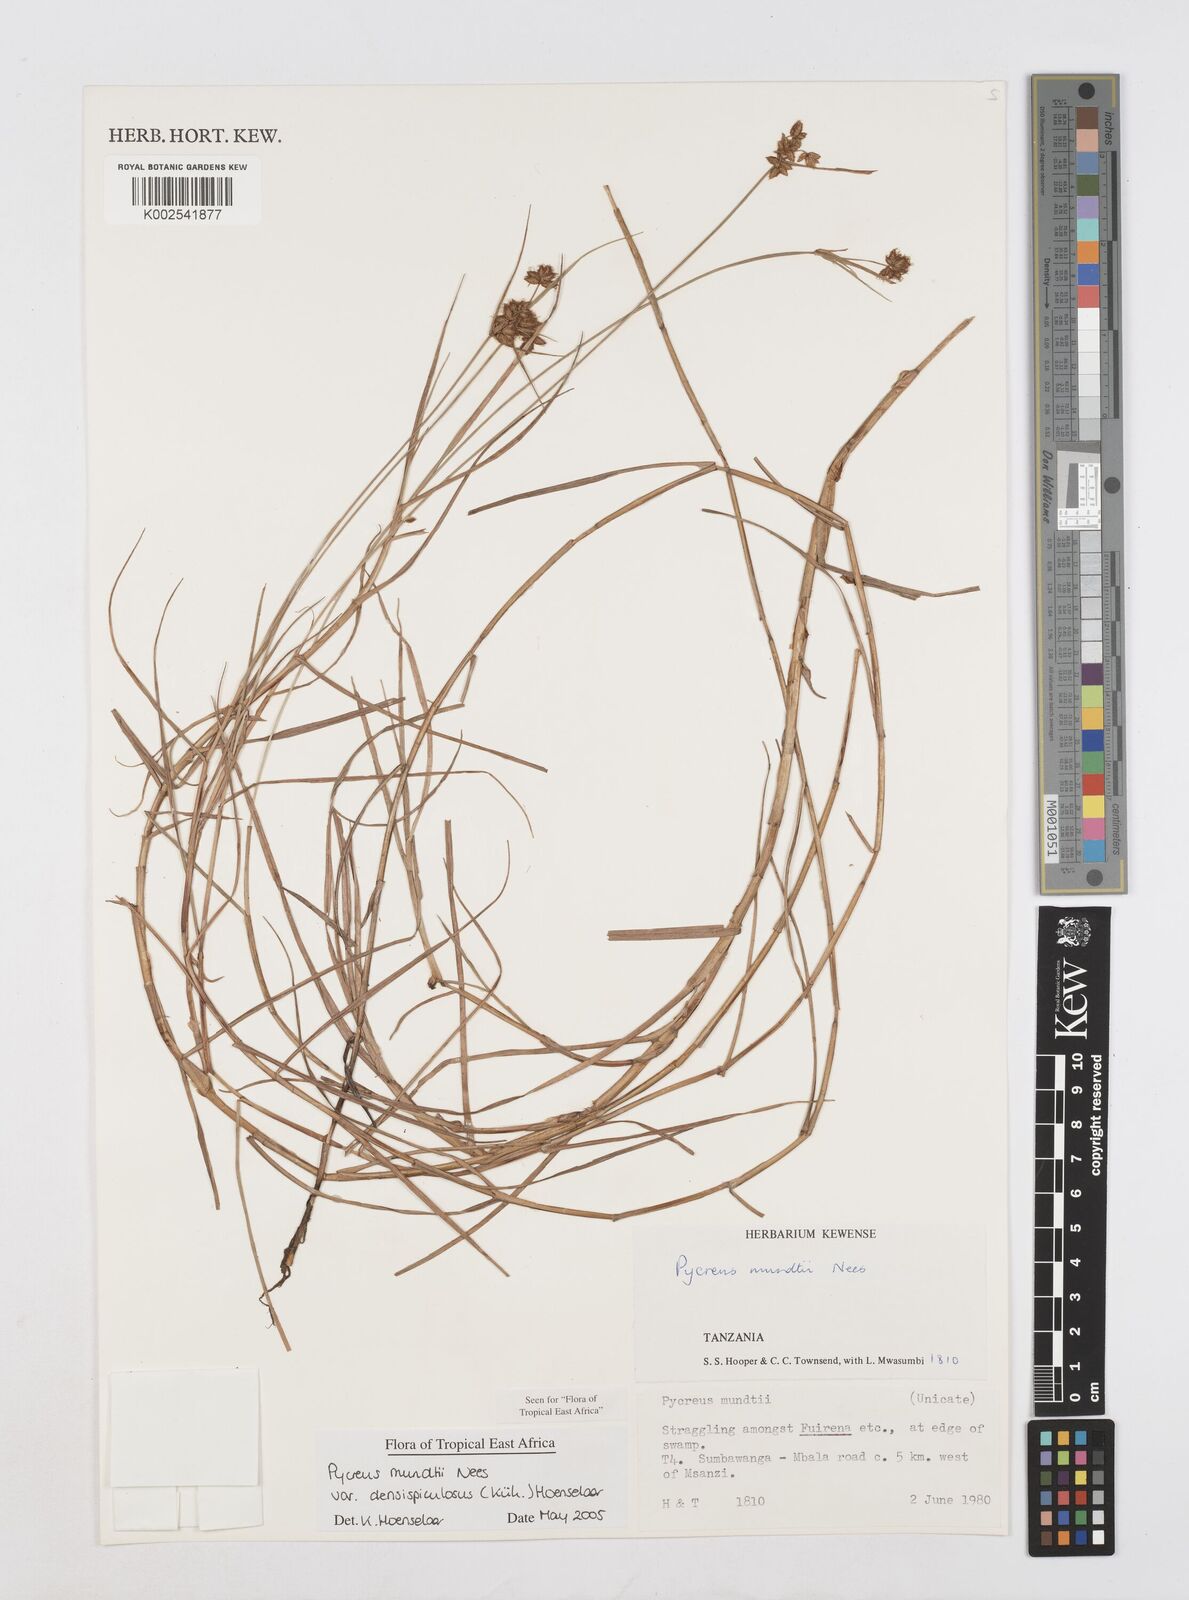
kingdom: Plantae
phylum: Tracheophyta
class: Liliopsida
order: Poales
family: Cyperaceae
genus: Cyperus
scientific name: Cyperus mundii
